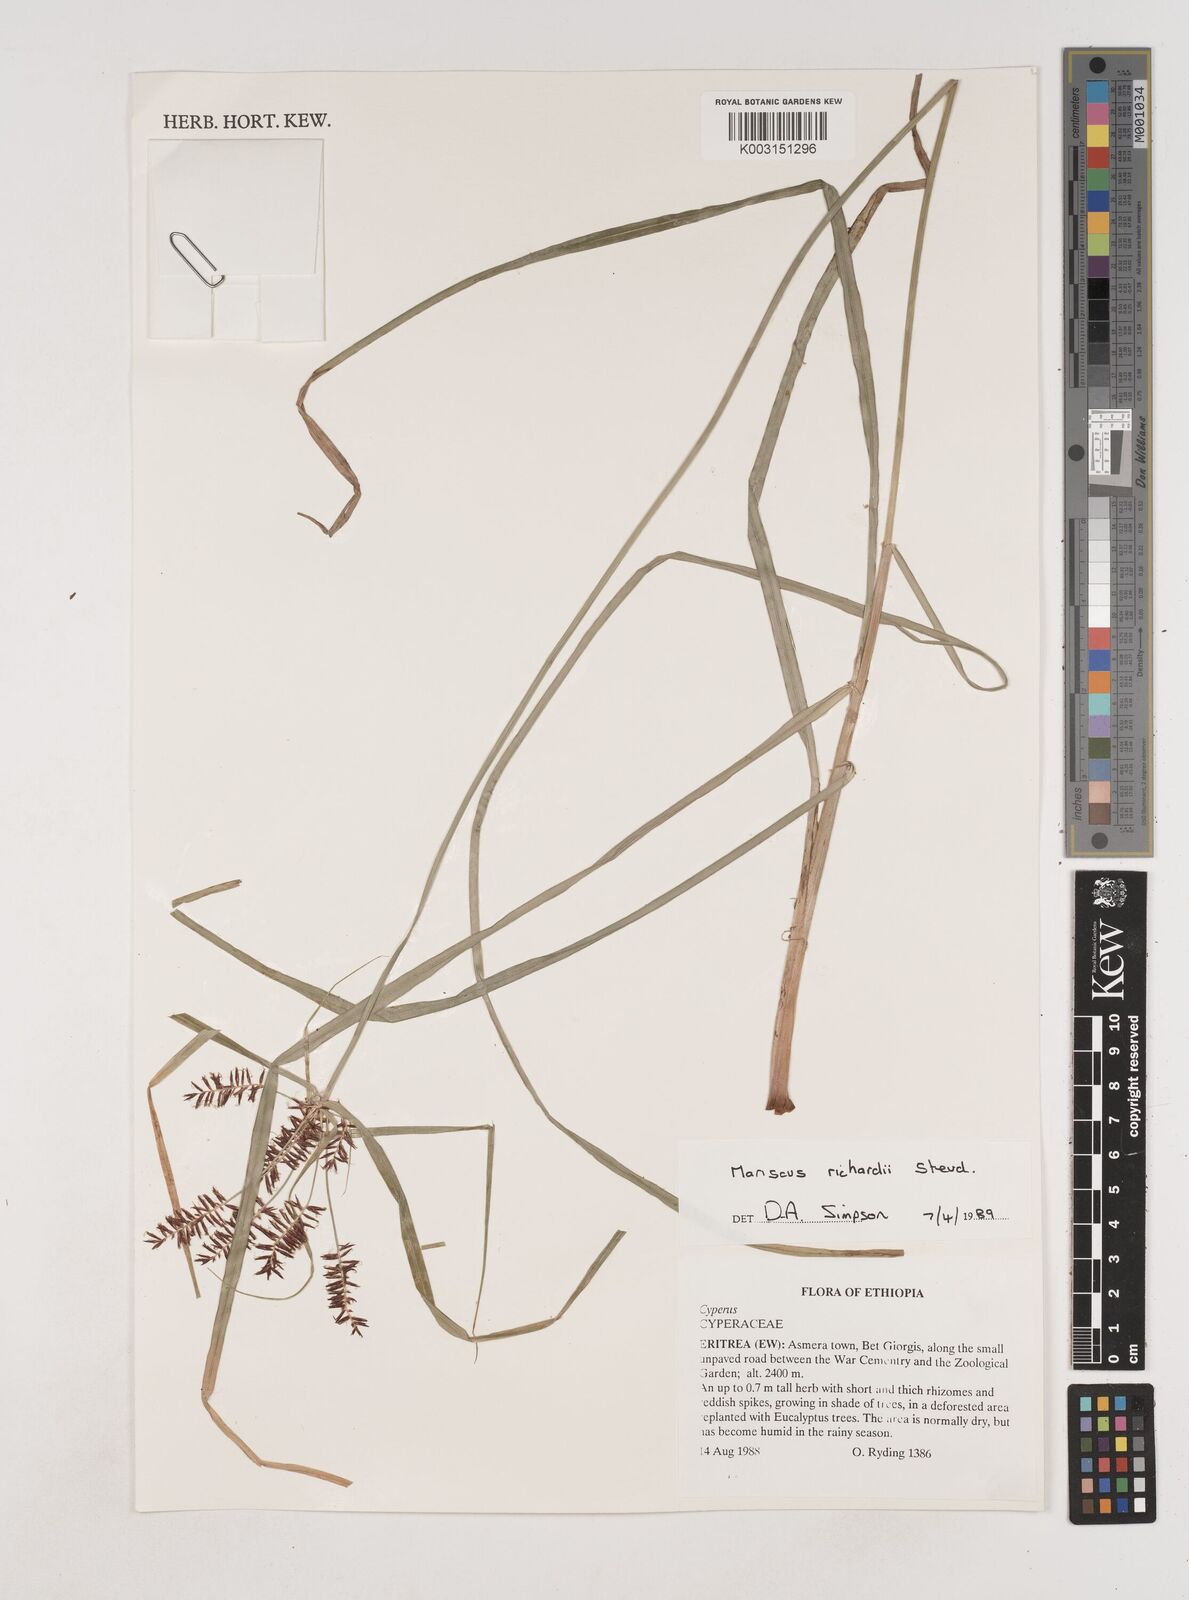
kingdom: Plantae
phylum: Tracheophyta
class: Liliopsida
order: Poales
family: Cyperaceae
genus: Cyperus
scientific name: Cyperus impubes
